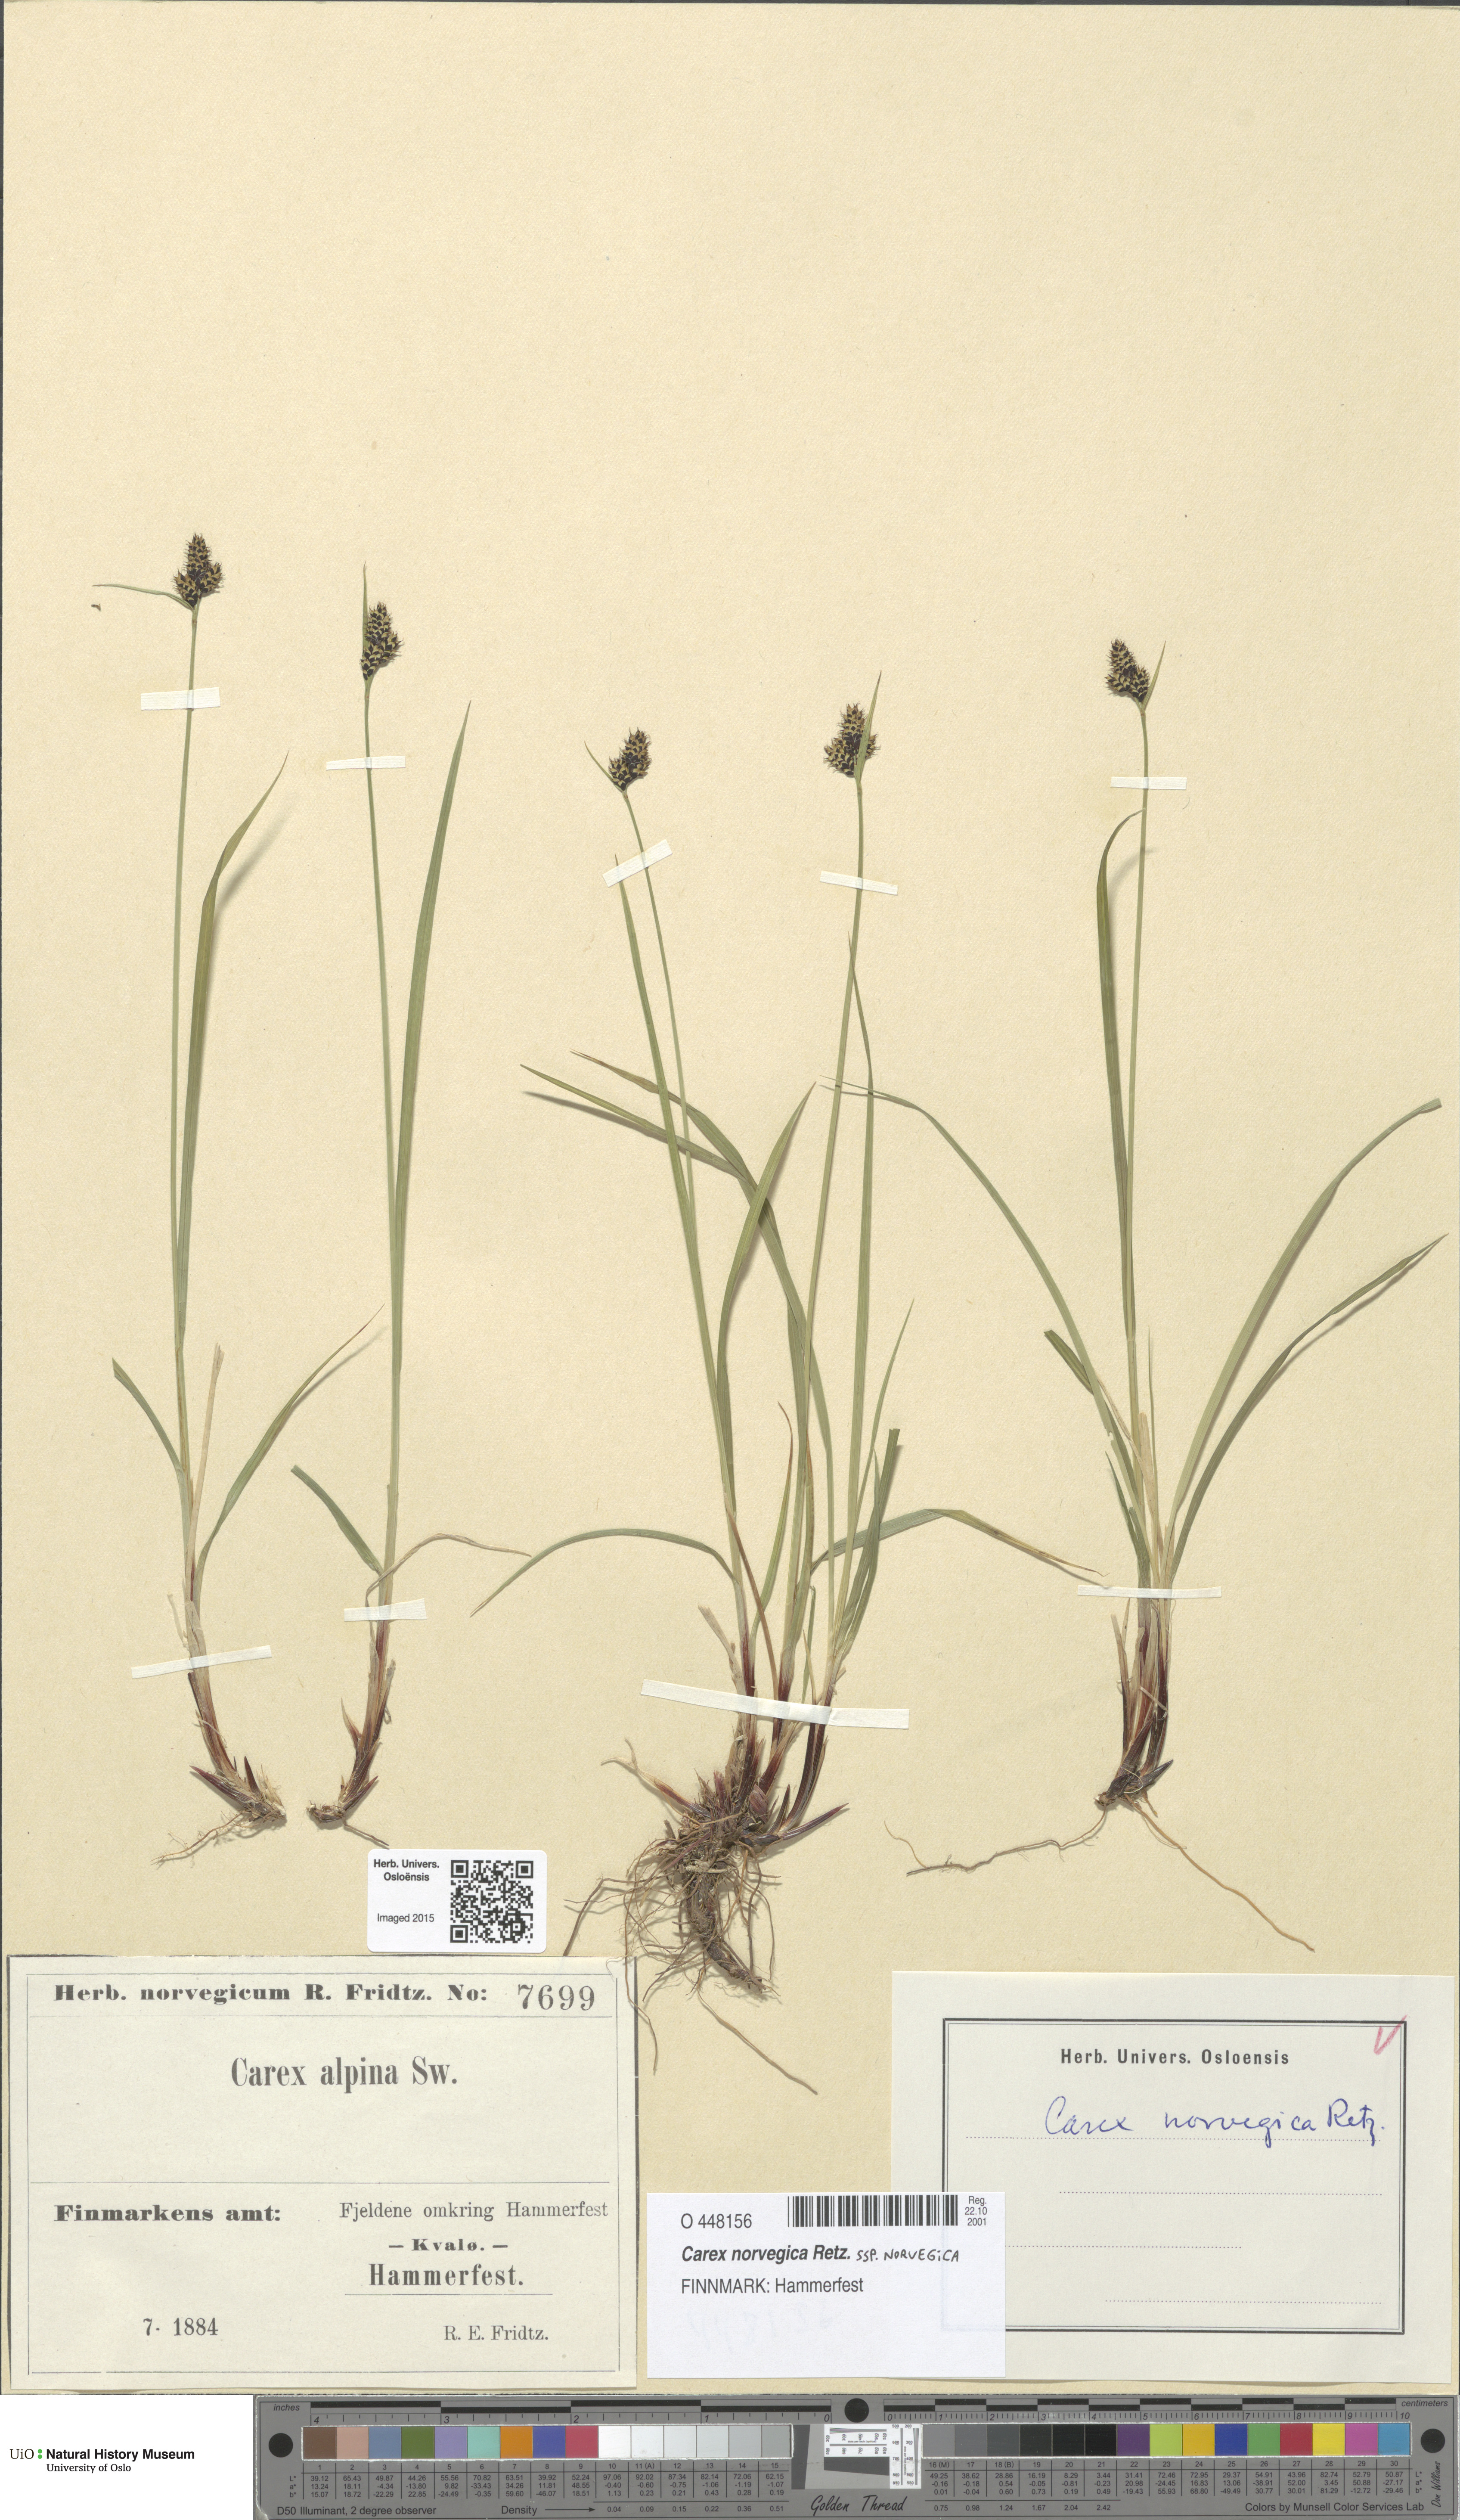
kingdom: Plantae
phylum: Tracheophyta
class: Liliopsida
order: Poales
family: Cyperaceae
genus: Carex
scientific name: Carex norvegica
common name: Close-headed alpine-sedge
